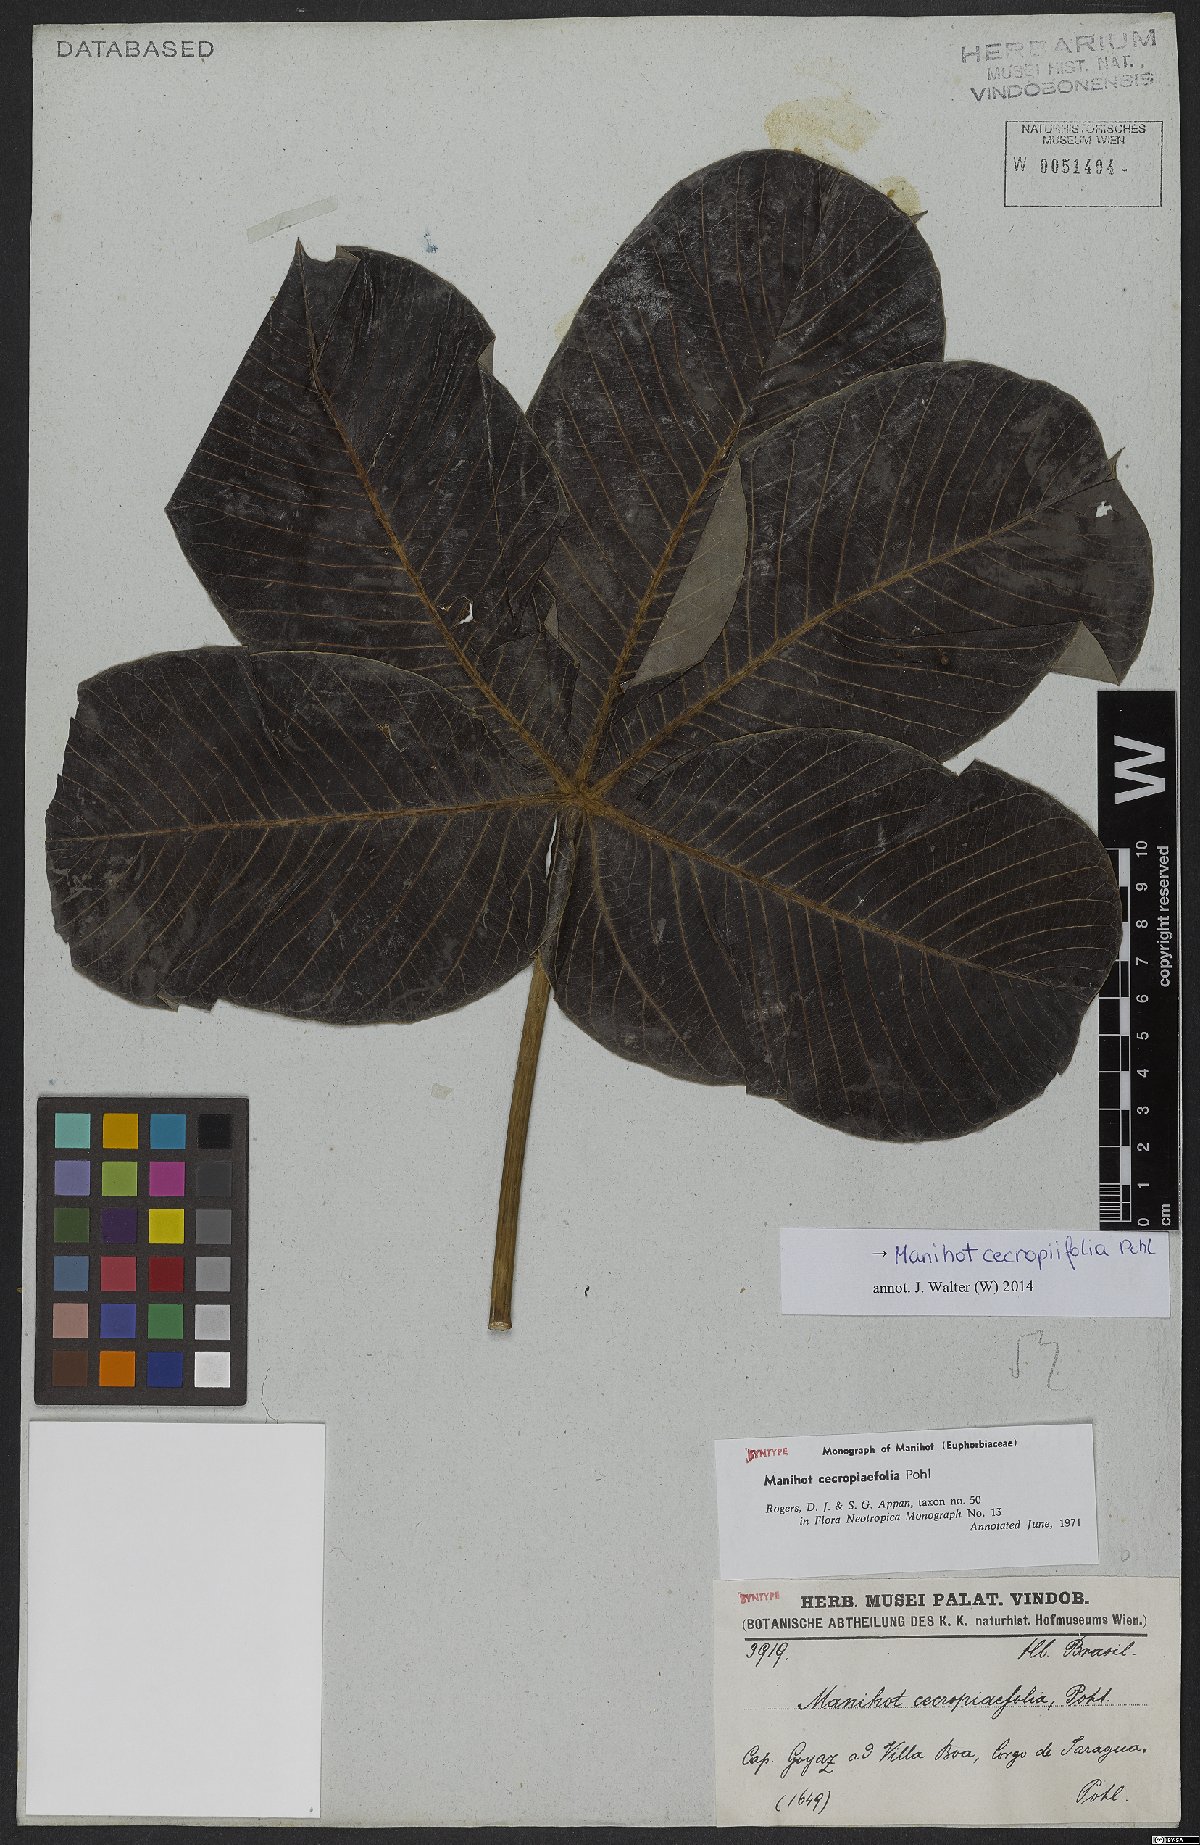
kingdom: Plantae
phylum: Tracheophyta
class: Magnoliopsida
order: Malpighiales
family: Euphorbiaceae
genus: Manihot
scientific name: Manihot cecropiifolia
